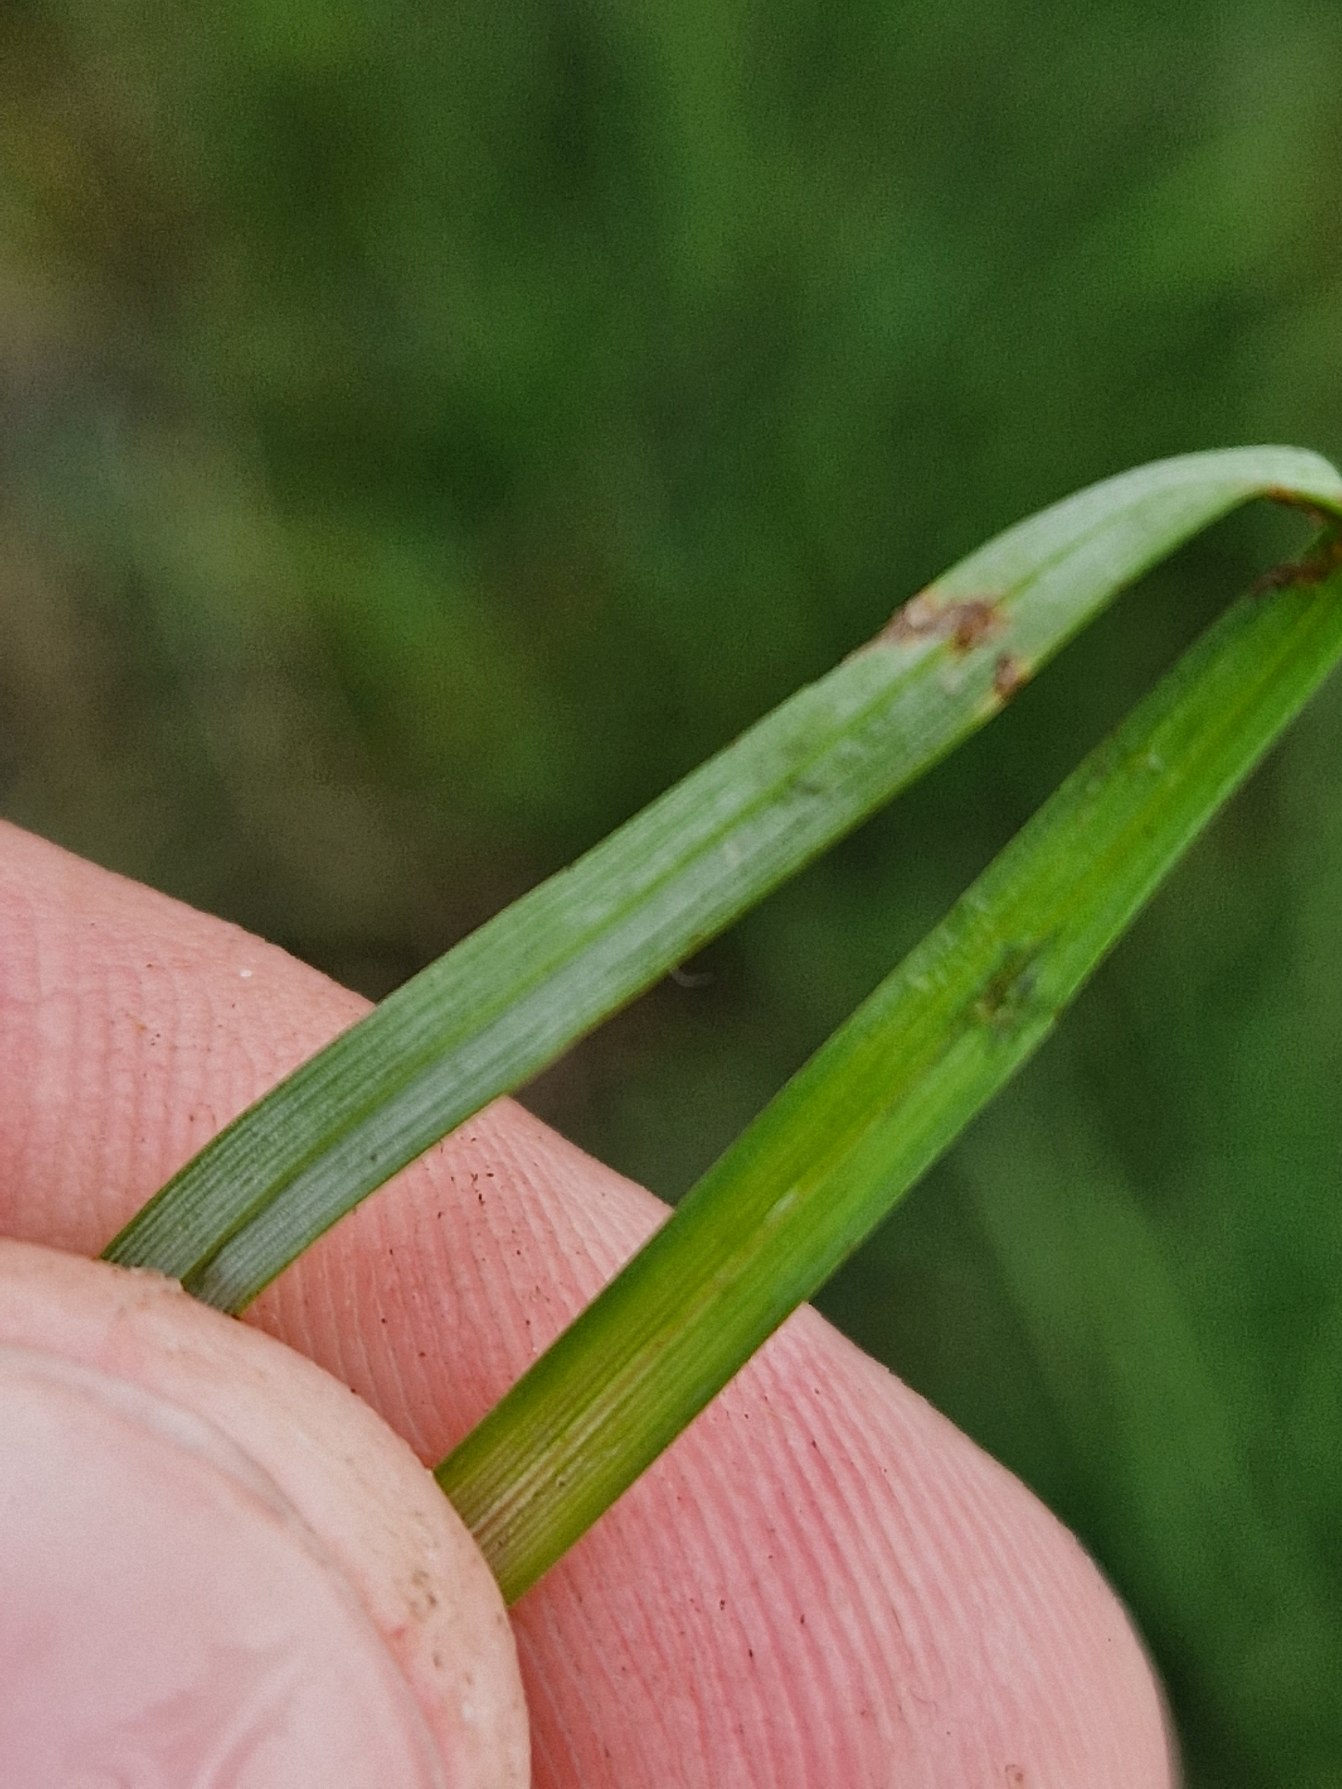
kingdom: Plantae
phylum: Tracheophyta
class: Liliopsida
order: Poales
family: Cyperaceae
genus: Carex
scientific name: Carex flacca
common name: Blågrøn star
